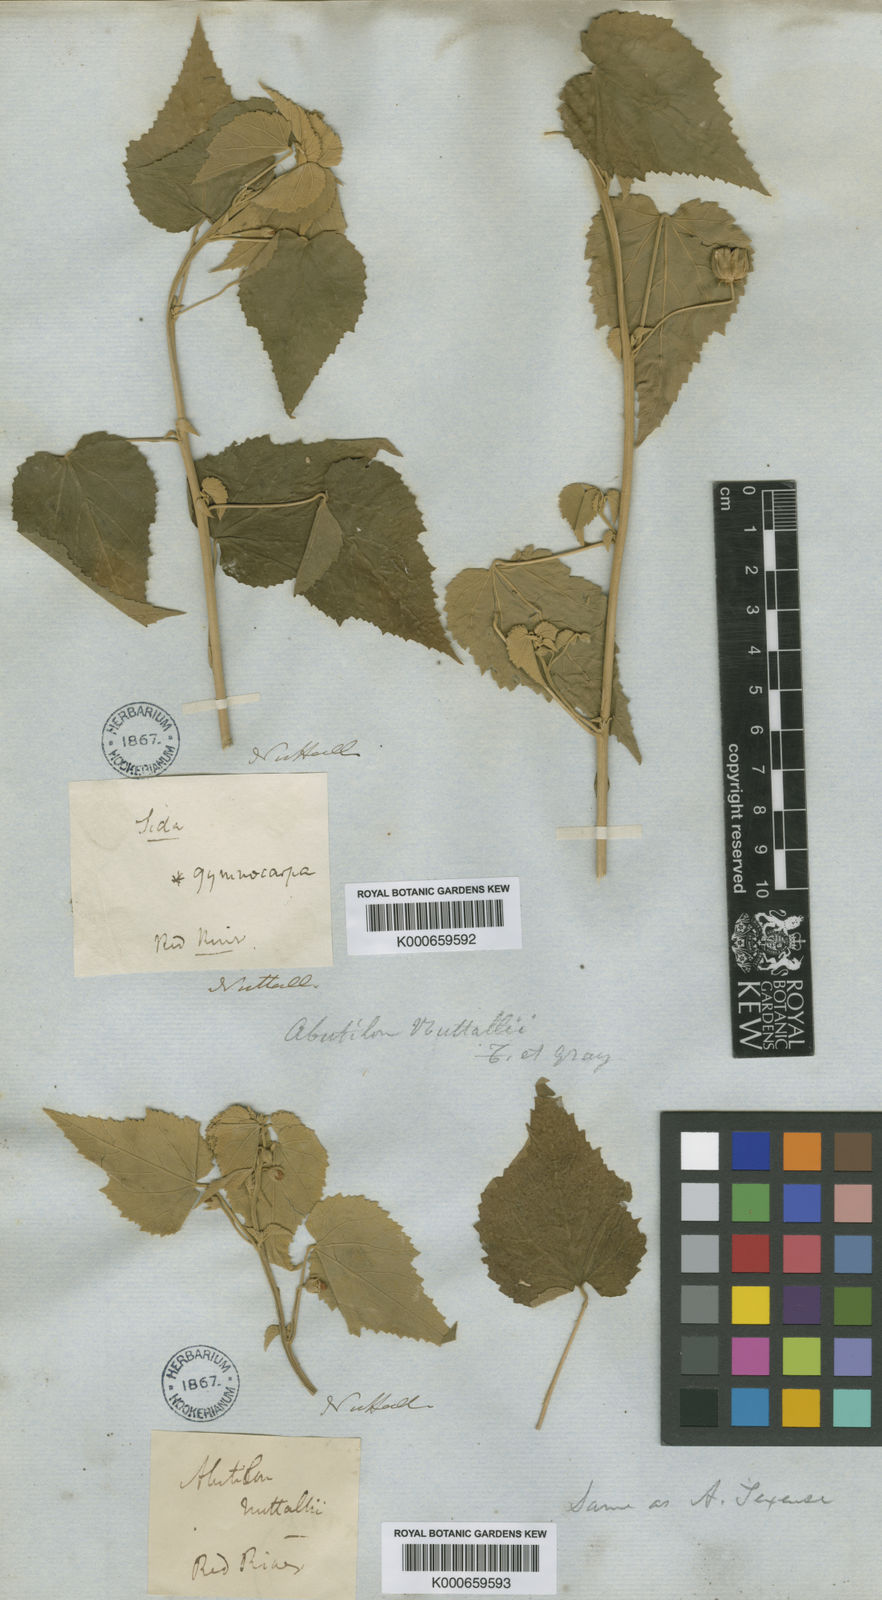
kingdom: Plantae
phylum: Tracheophyta
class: Magnoliopsida
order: Malvales
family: Malvaceae
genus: Abutilon
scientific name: Abutilon fruticosum
